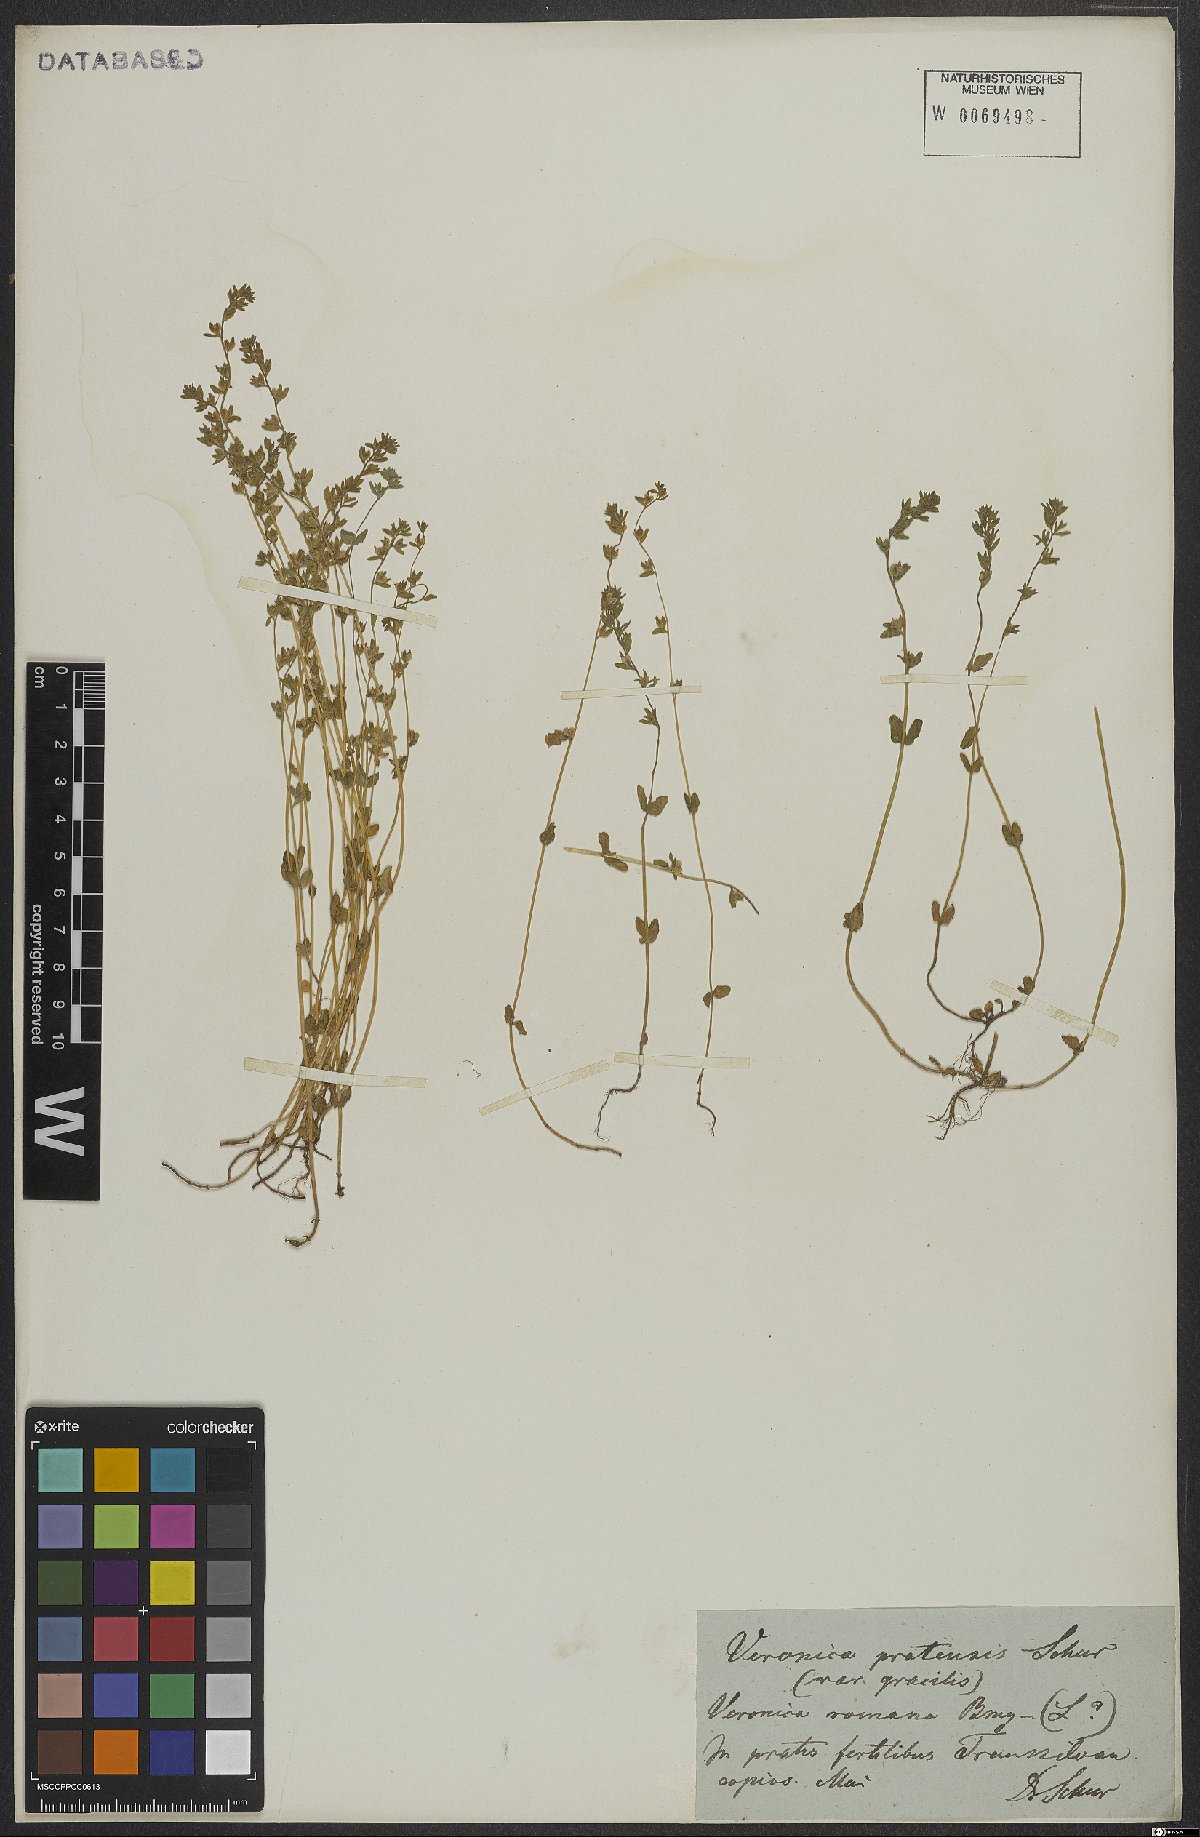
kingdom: Plantae
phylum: Tracheophyta
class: Magnoliopsida
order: Lamiales
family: Plantaginaceae
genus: Veronica
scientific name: Veronica arvensis
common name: Corn speedwell
